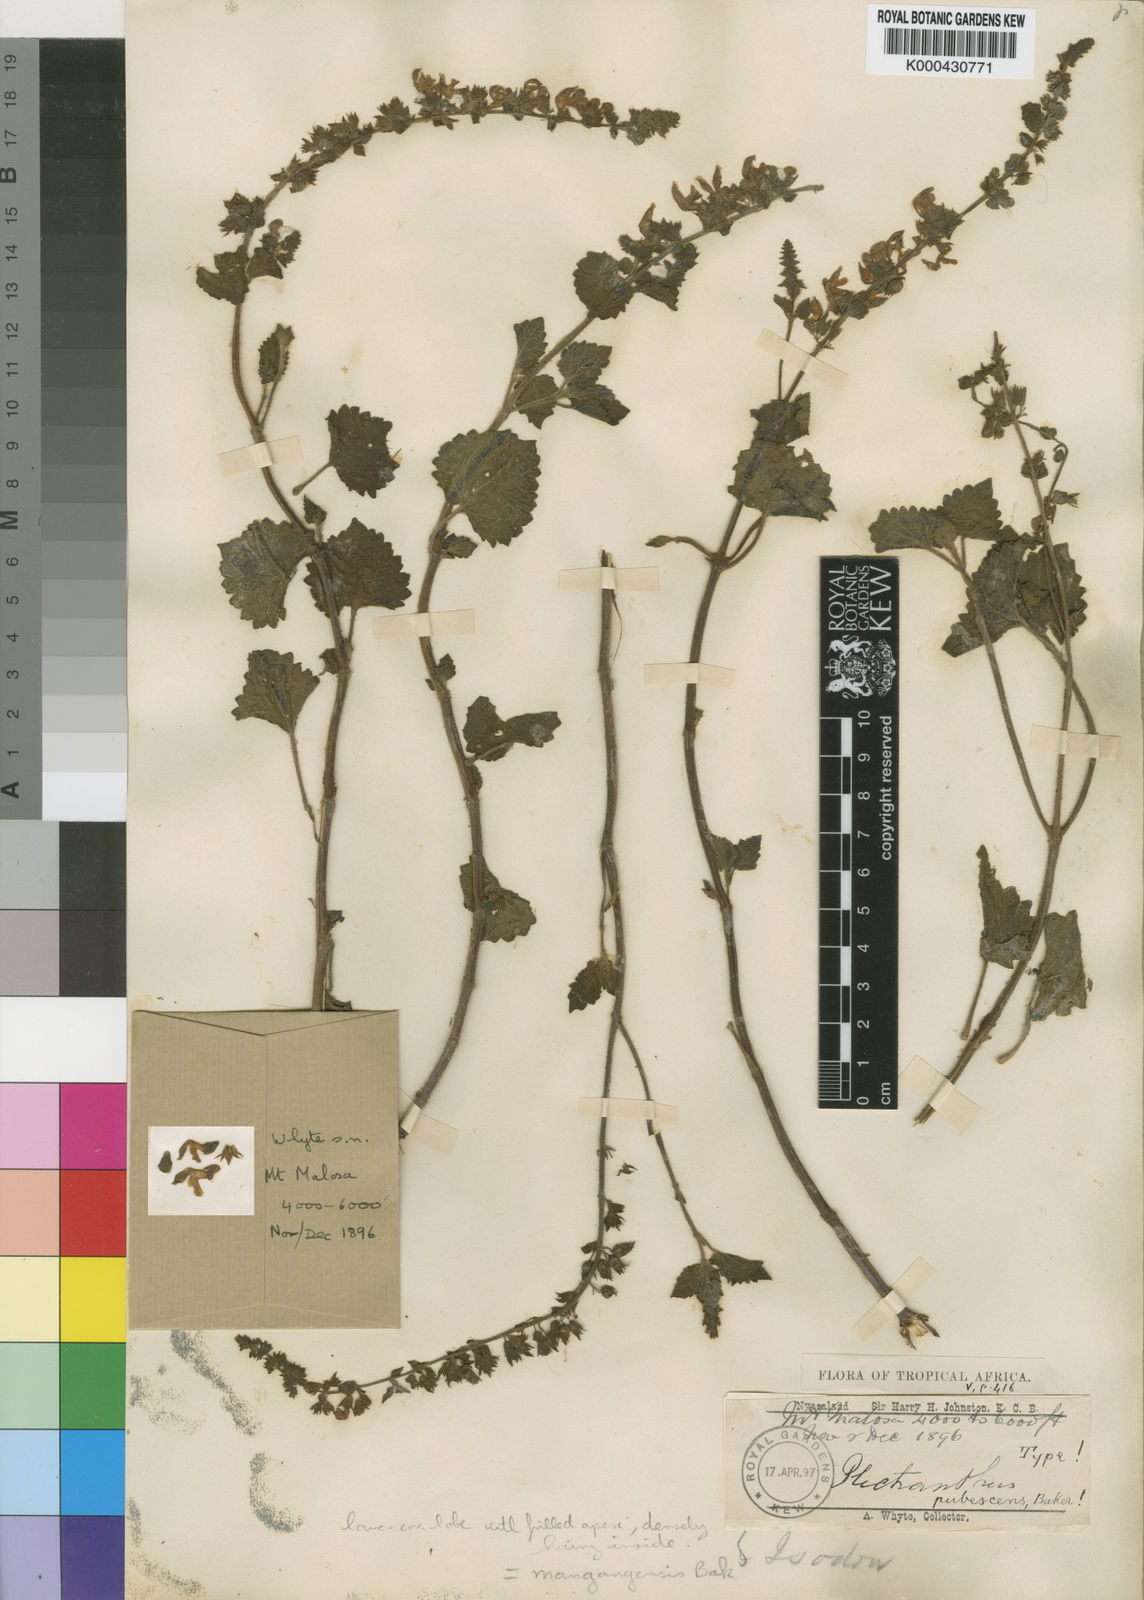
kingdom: Plantae
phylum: Tracheophyta
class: Magnoliopsida
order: Lamiales
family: Lamiaceae
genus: Equilabium
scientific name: Equilabium pubescens
